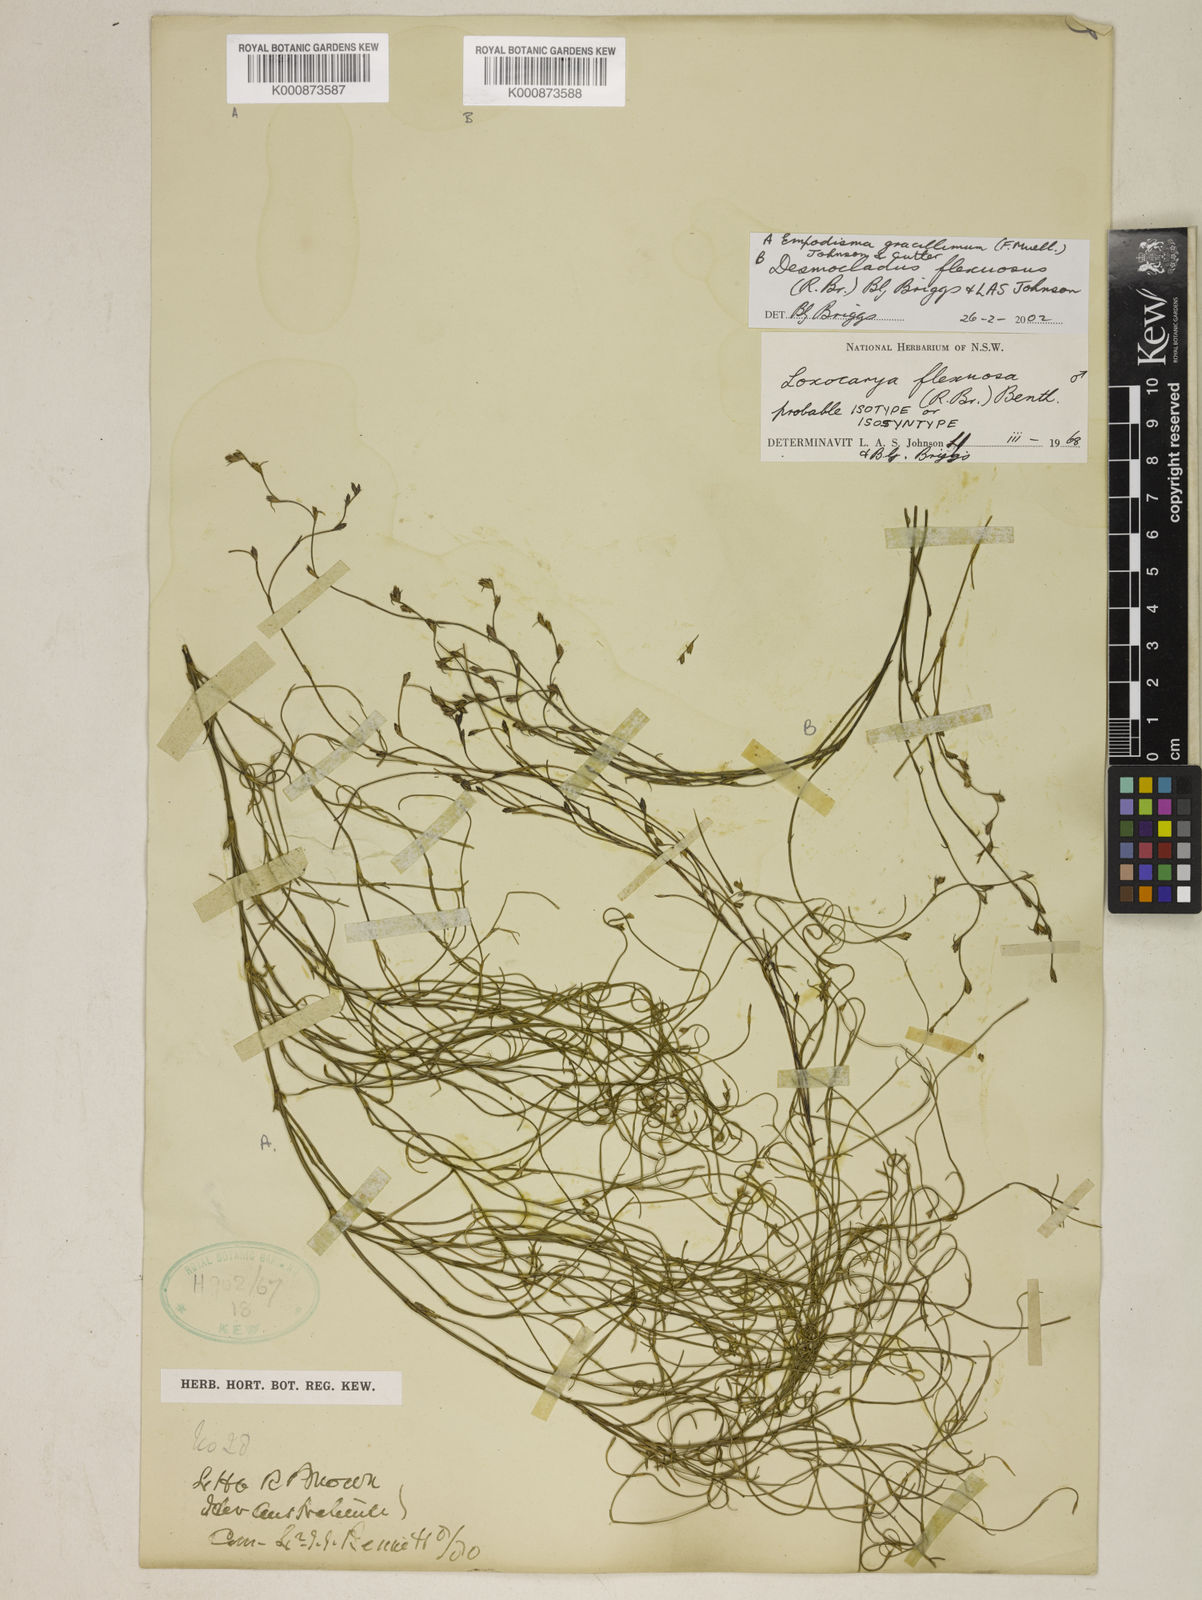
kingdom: Plantae
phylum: Tracheophyta
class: Liliopsida
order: Poales
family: Restionaceae
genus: Desmocladus
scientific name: Desmocladus flexuosus
